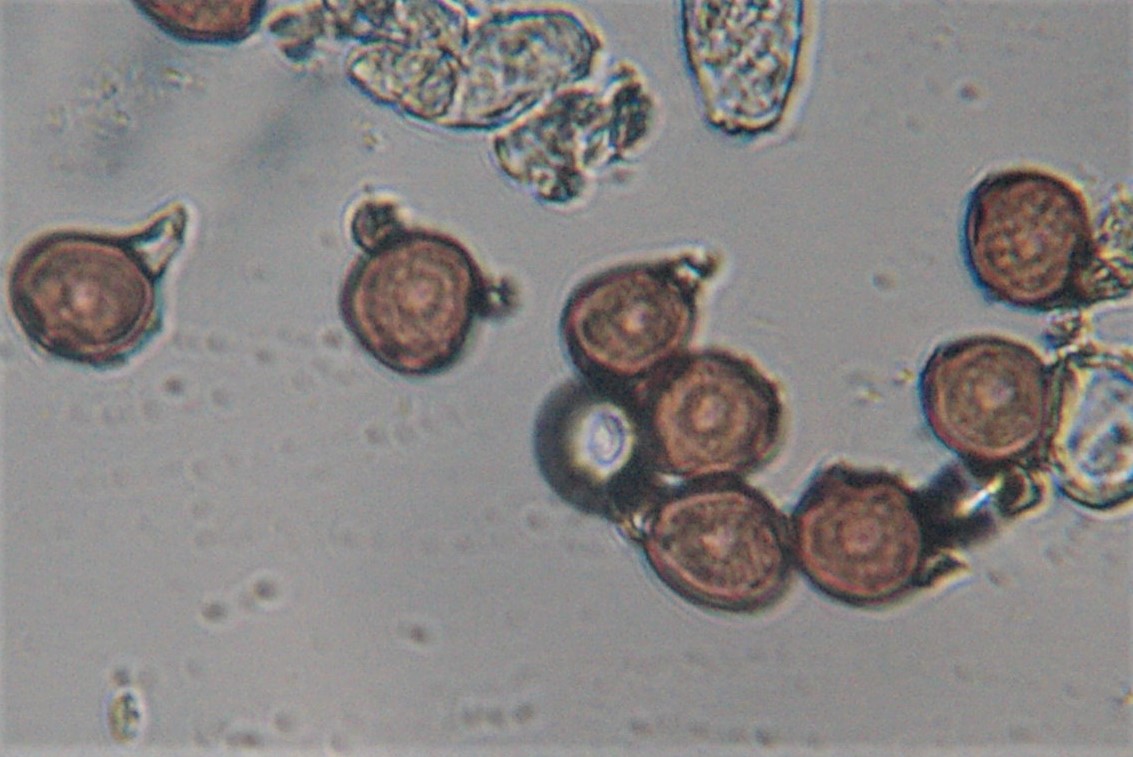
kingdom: Fungi
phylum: Basidiomycota
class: Pucciniomycetes
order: Pucciniales
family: Pucciniaceae
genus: Uromyces
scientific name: Uromyces minor
